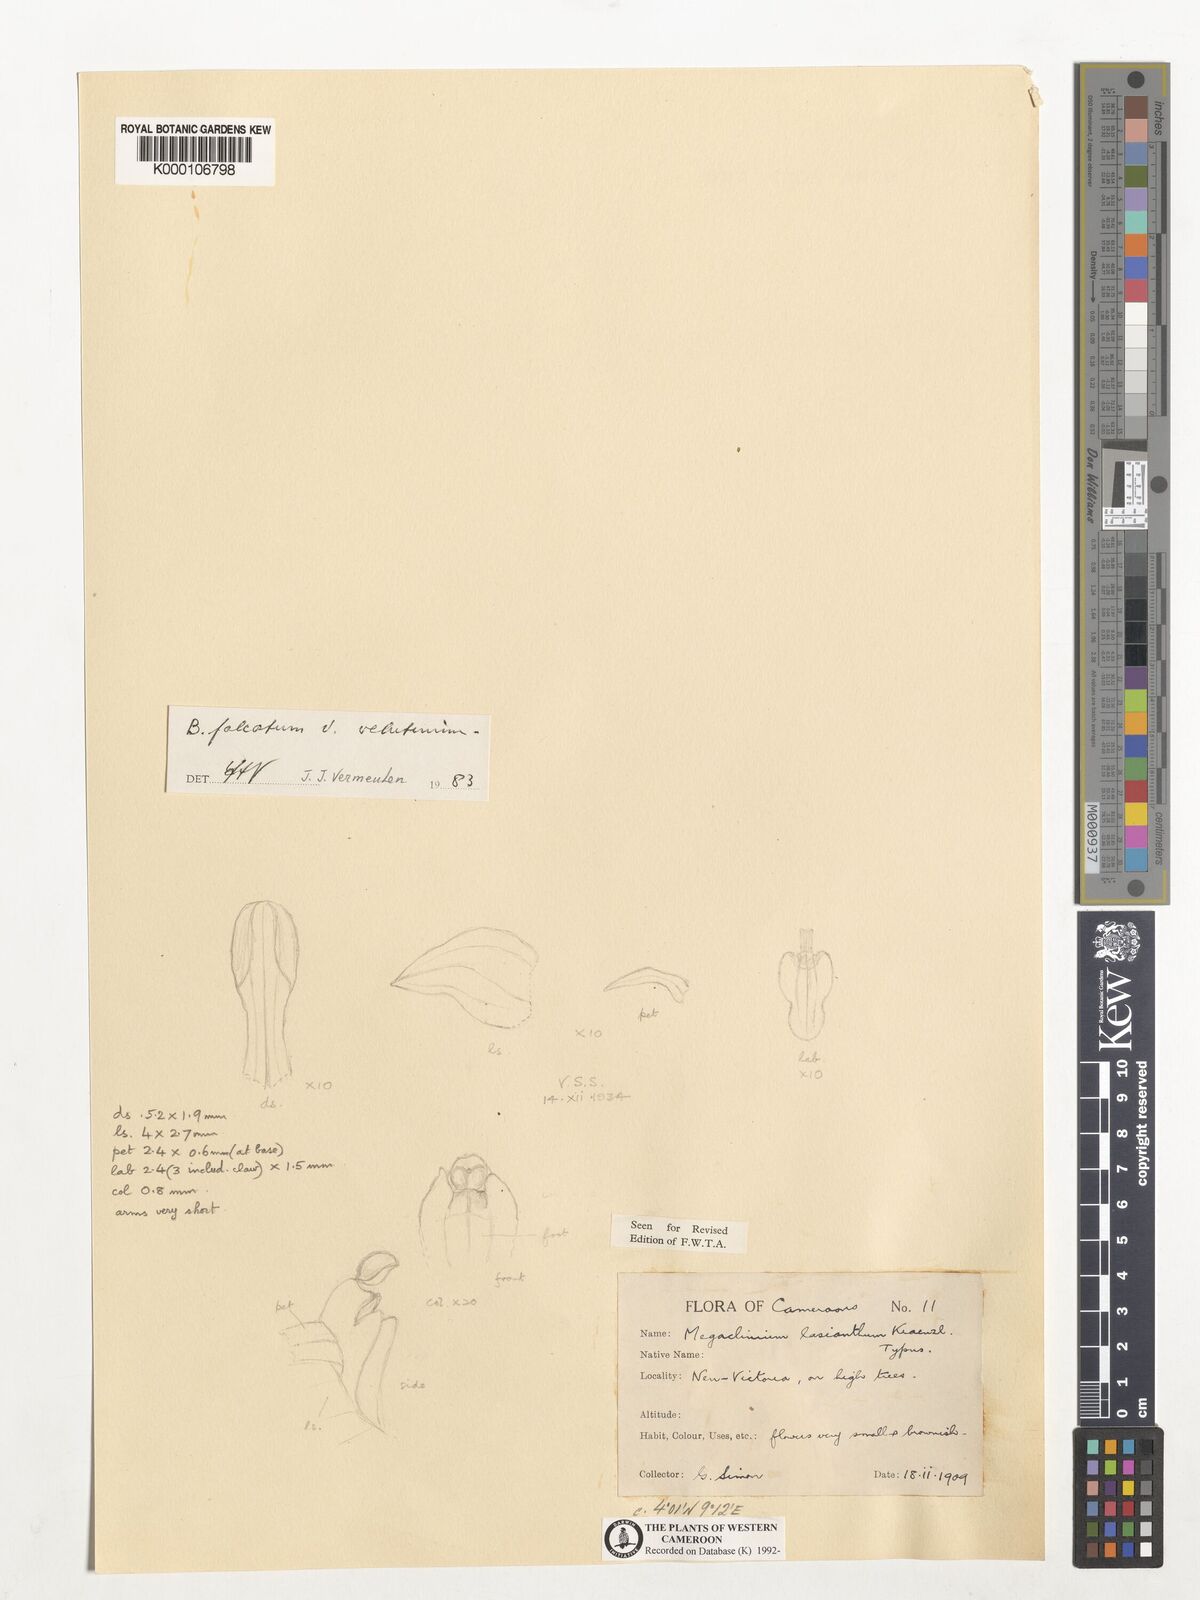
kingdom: Plantae
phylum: Tracheophyta
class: Liliopsida
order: Asparagales
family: Orchidaceae
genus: Bulbophyllum
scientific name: Bulbophyllum falcatum
